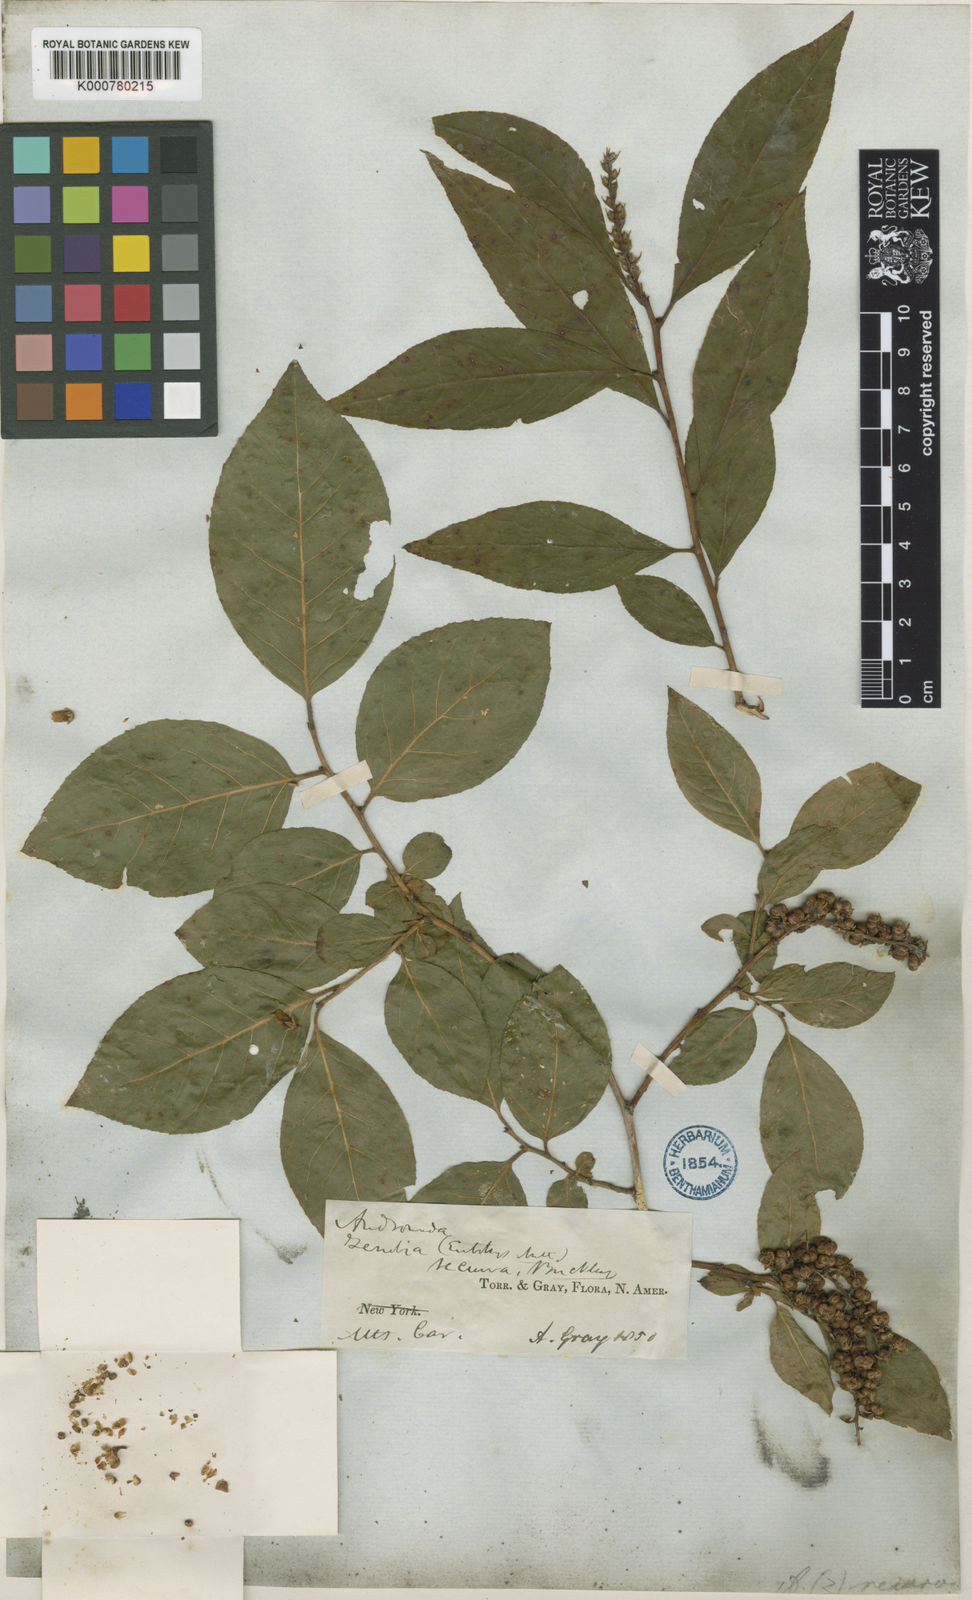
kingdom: Plantae
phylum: Tracheophyta
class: Magnoliopsida
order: Ericales
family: Ericaceae
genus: Eubotrys
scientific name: Eubotrys recurva
